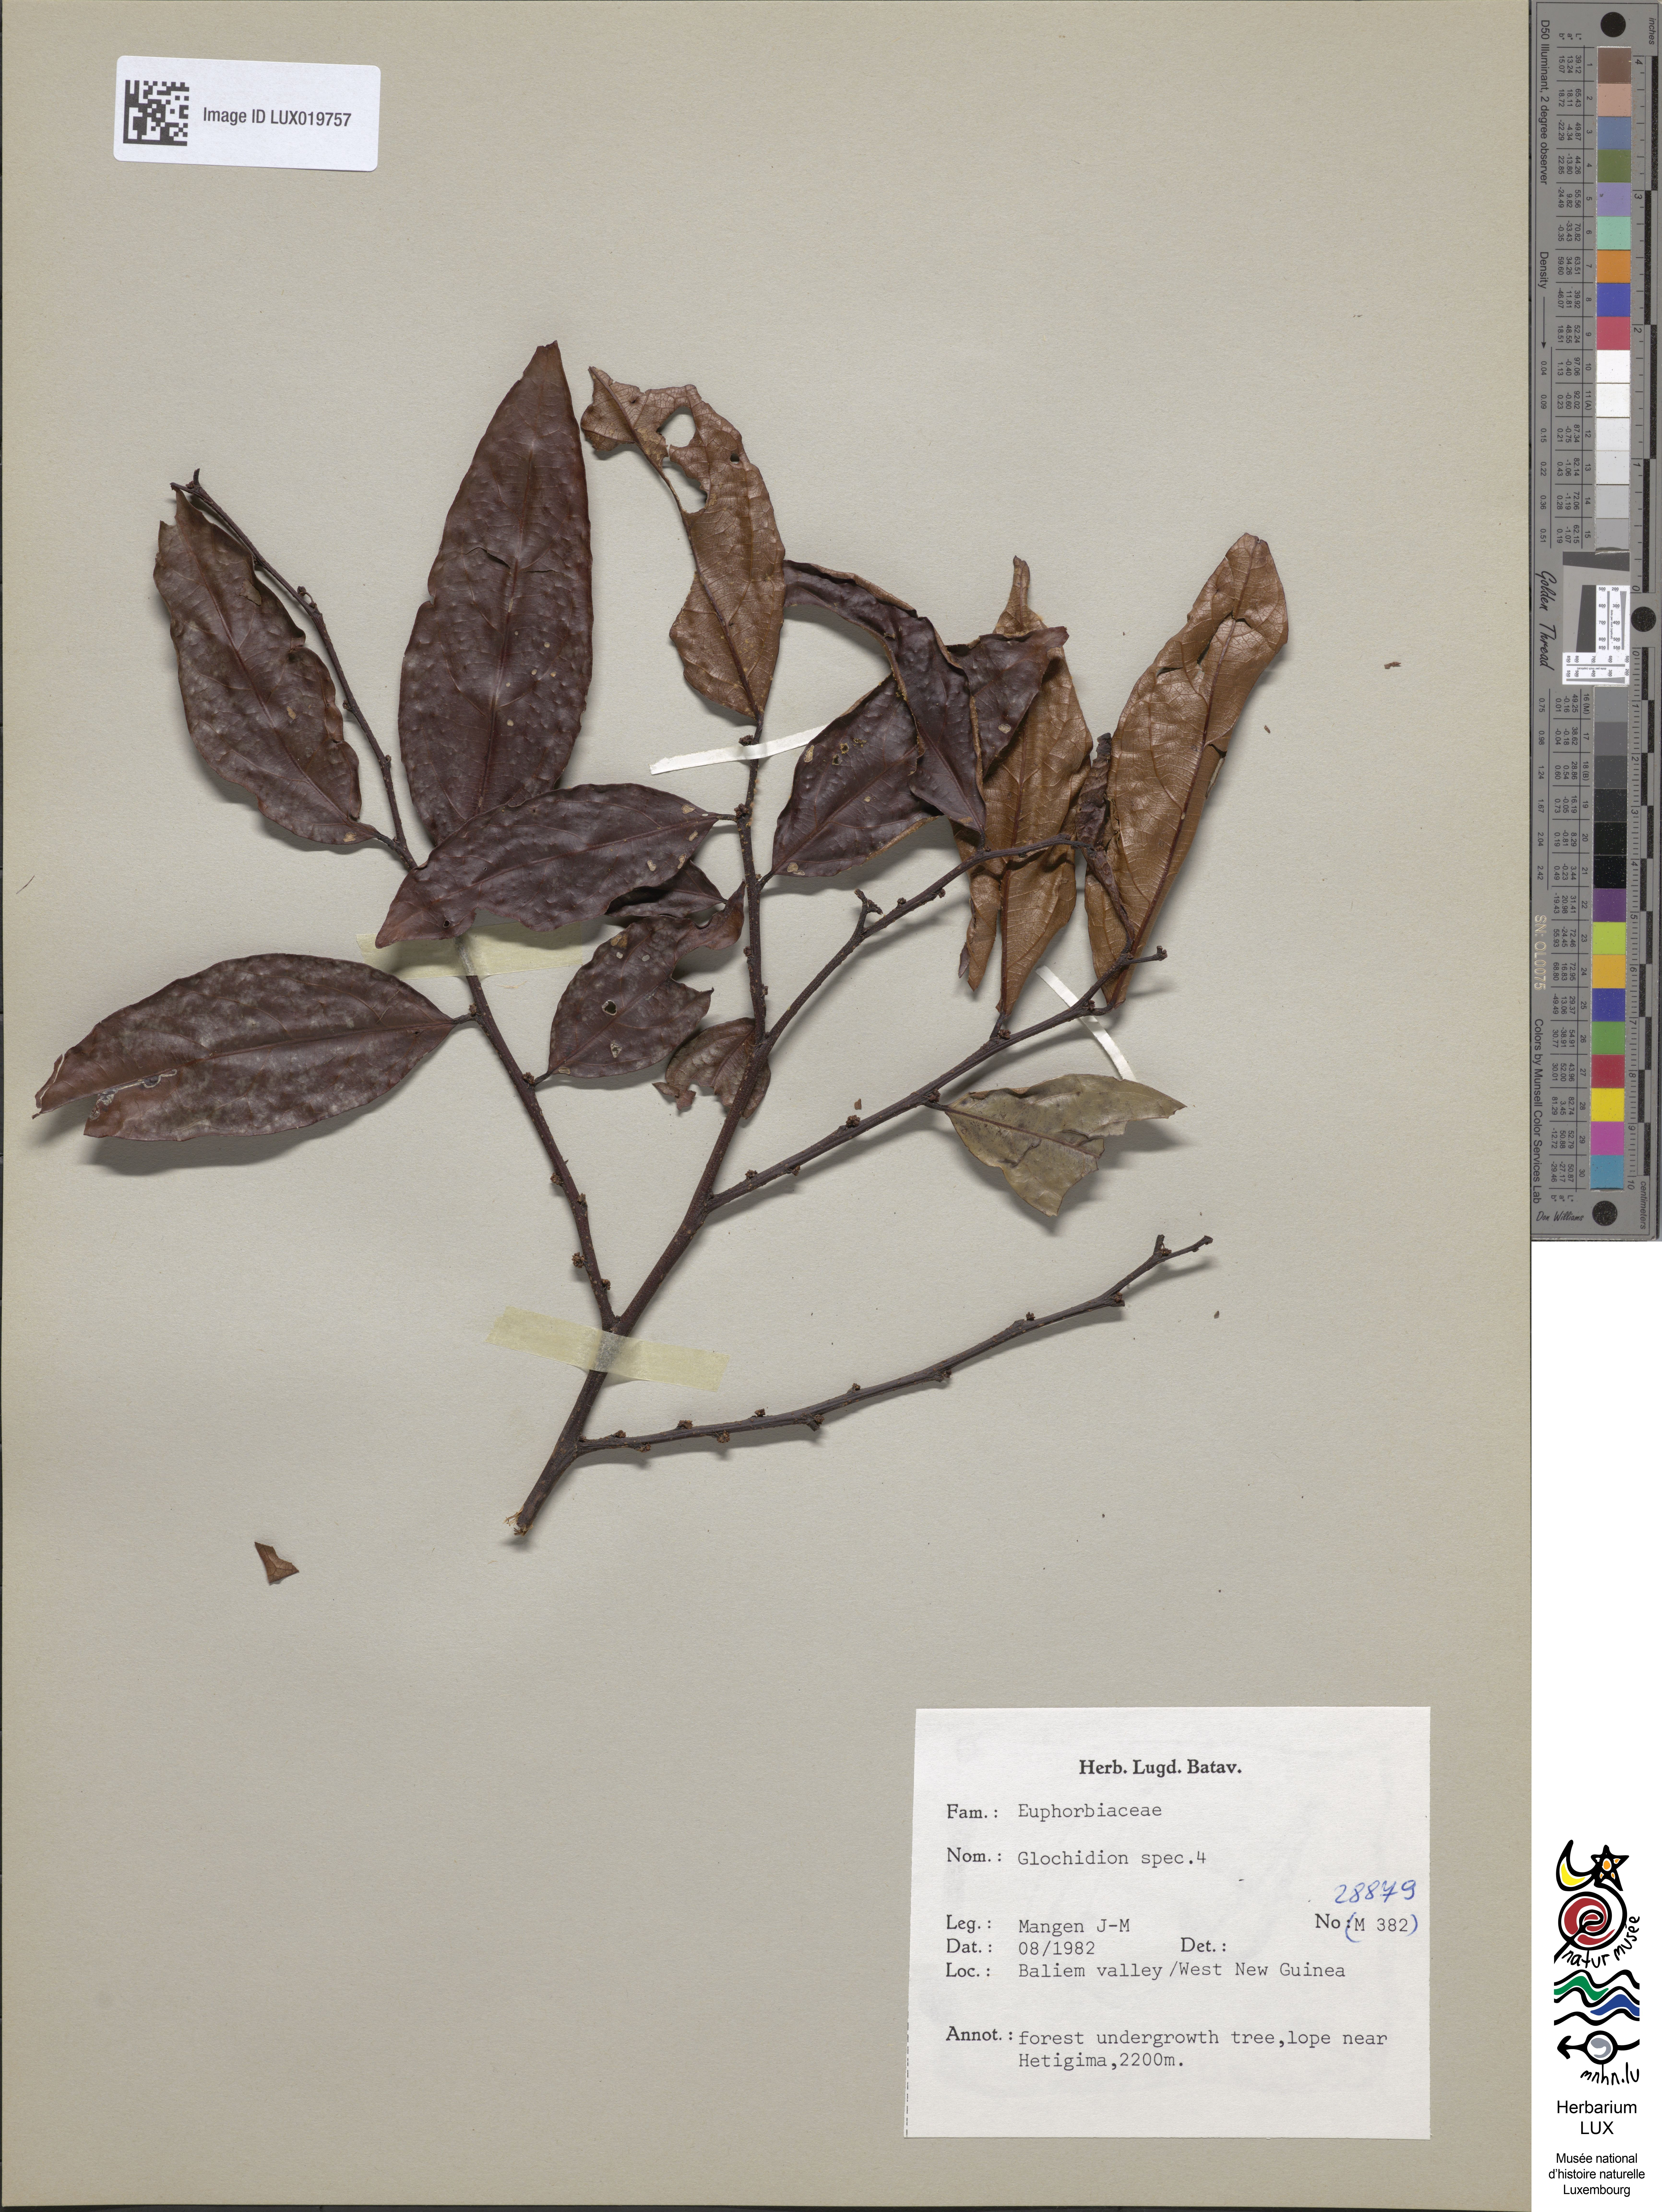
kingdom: Plantae
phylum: Tracheophyta
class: Magnoliopsida
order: Malpighiales
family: Phyllanthaceae
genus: Glochidion
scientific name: Glochidion
